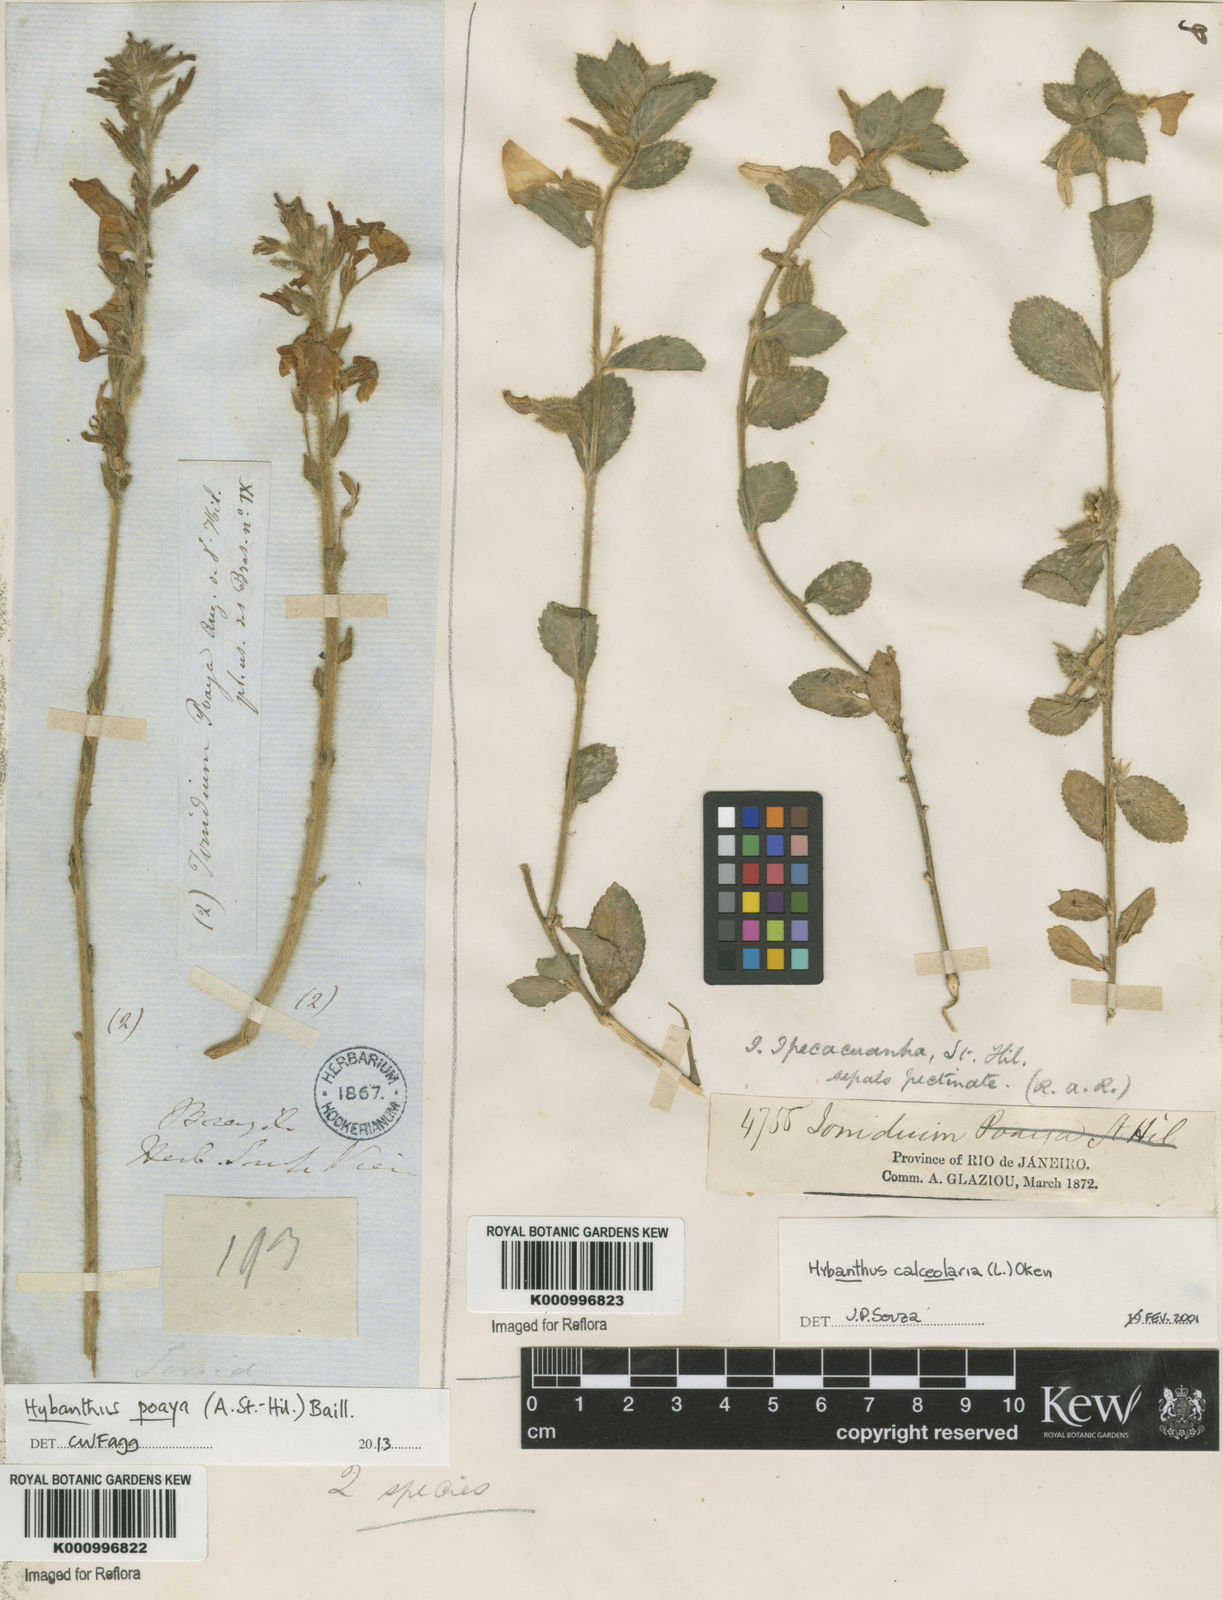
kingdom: Plantae
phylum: Tracheophyta
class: Magnoliopsida
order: Malpighiales
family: Violaceae
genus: Pombalia
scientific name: Pombalia poaya
